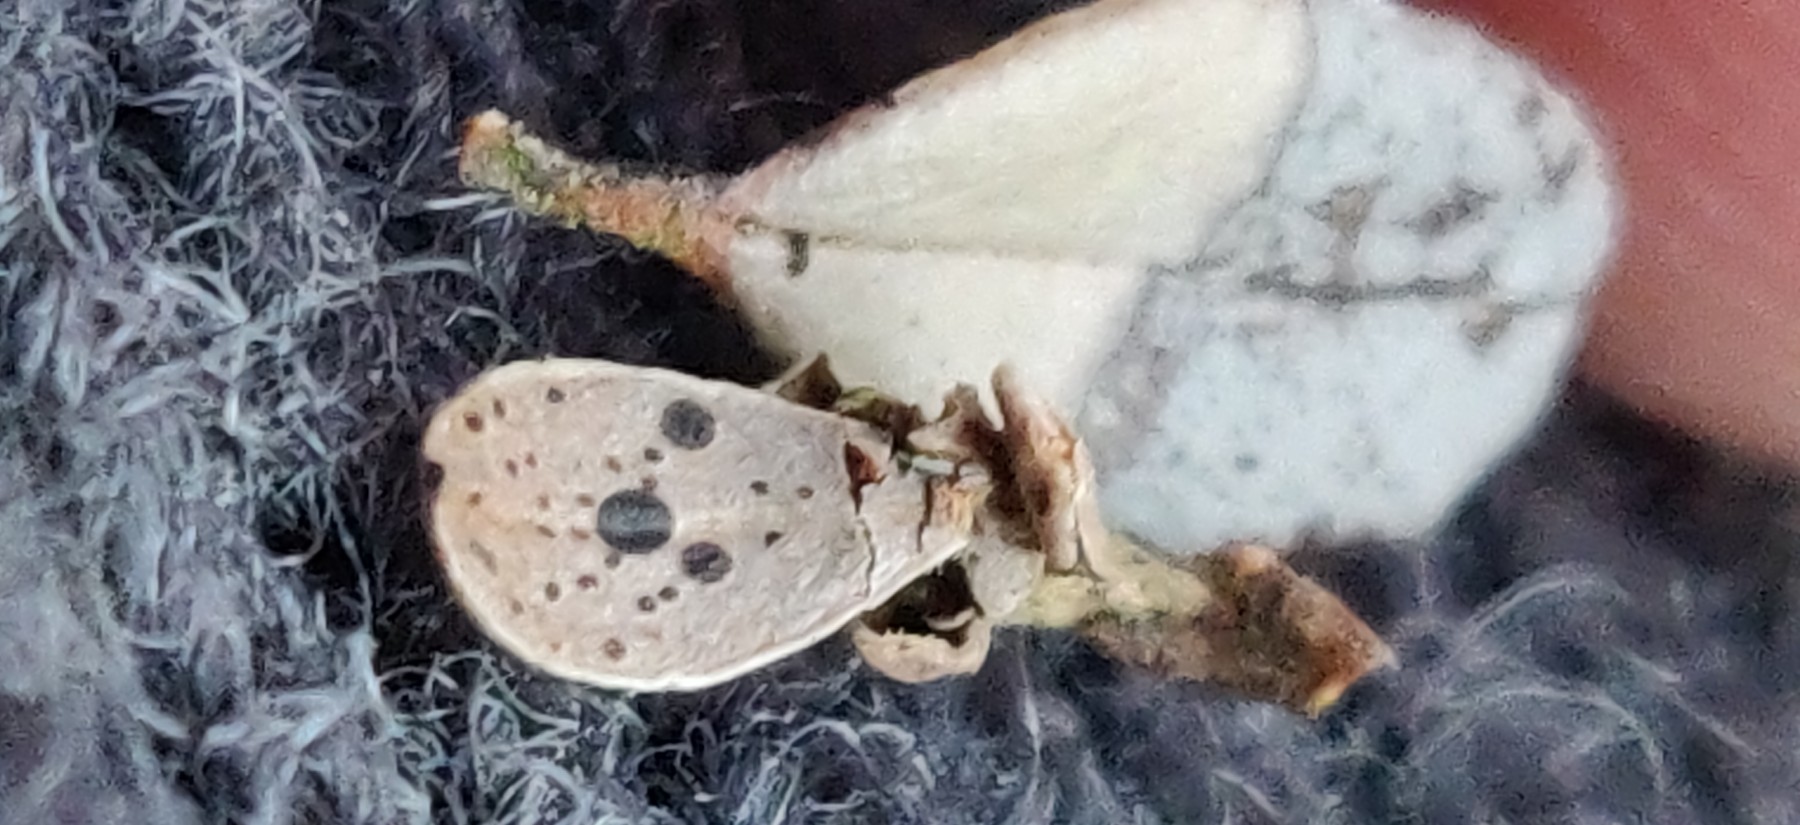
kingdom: Fungi
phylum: Ascomycota
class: Leotiomycetes
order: Rhytismatales
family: Rhytismataceae
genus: Lophodermium
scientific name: Lophodermium melaleucum
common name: tyttebær-fureplet
